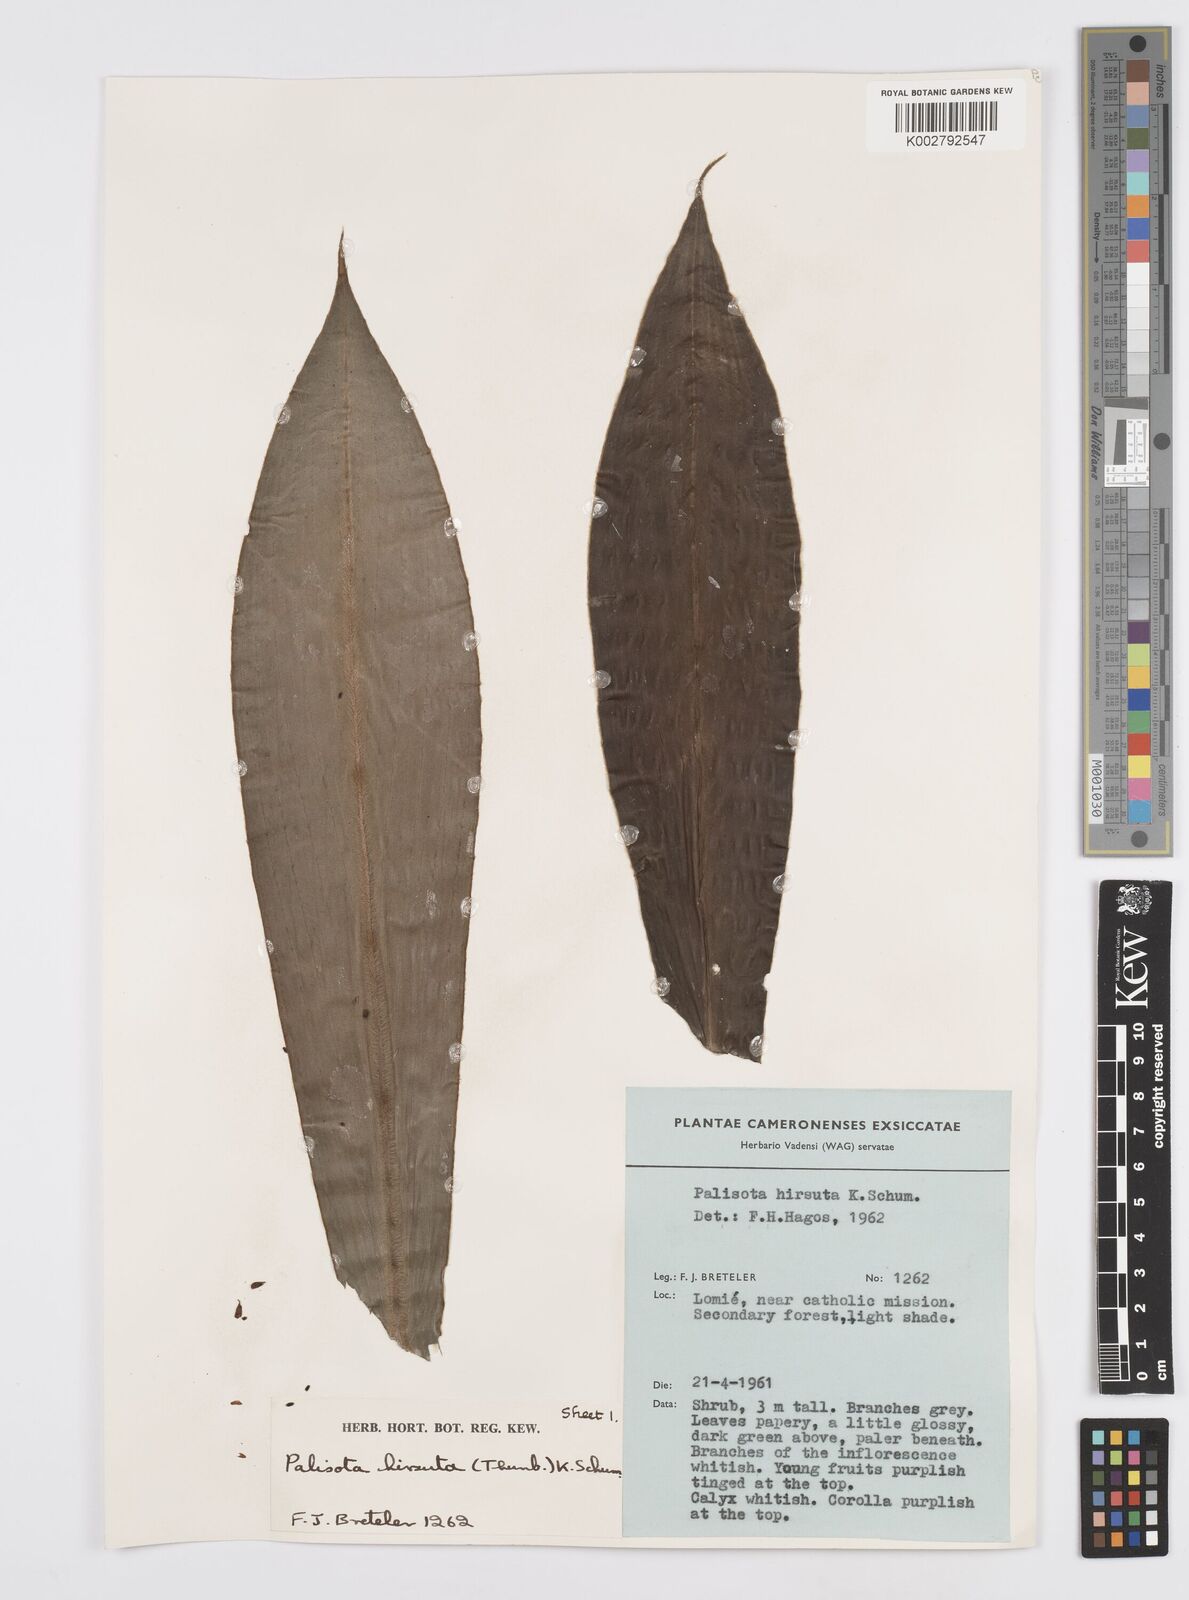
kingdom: Plantae
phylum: Tracheophyta
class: Liliopsida
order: Commelinales
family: Commelinaceae
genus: Palisota
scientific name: Palisota hirsuta
